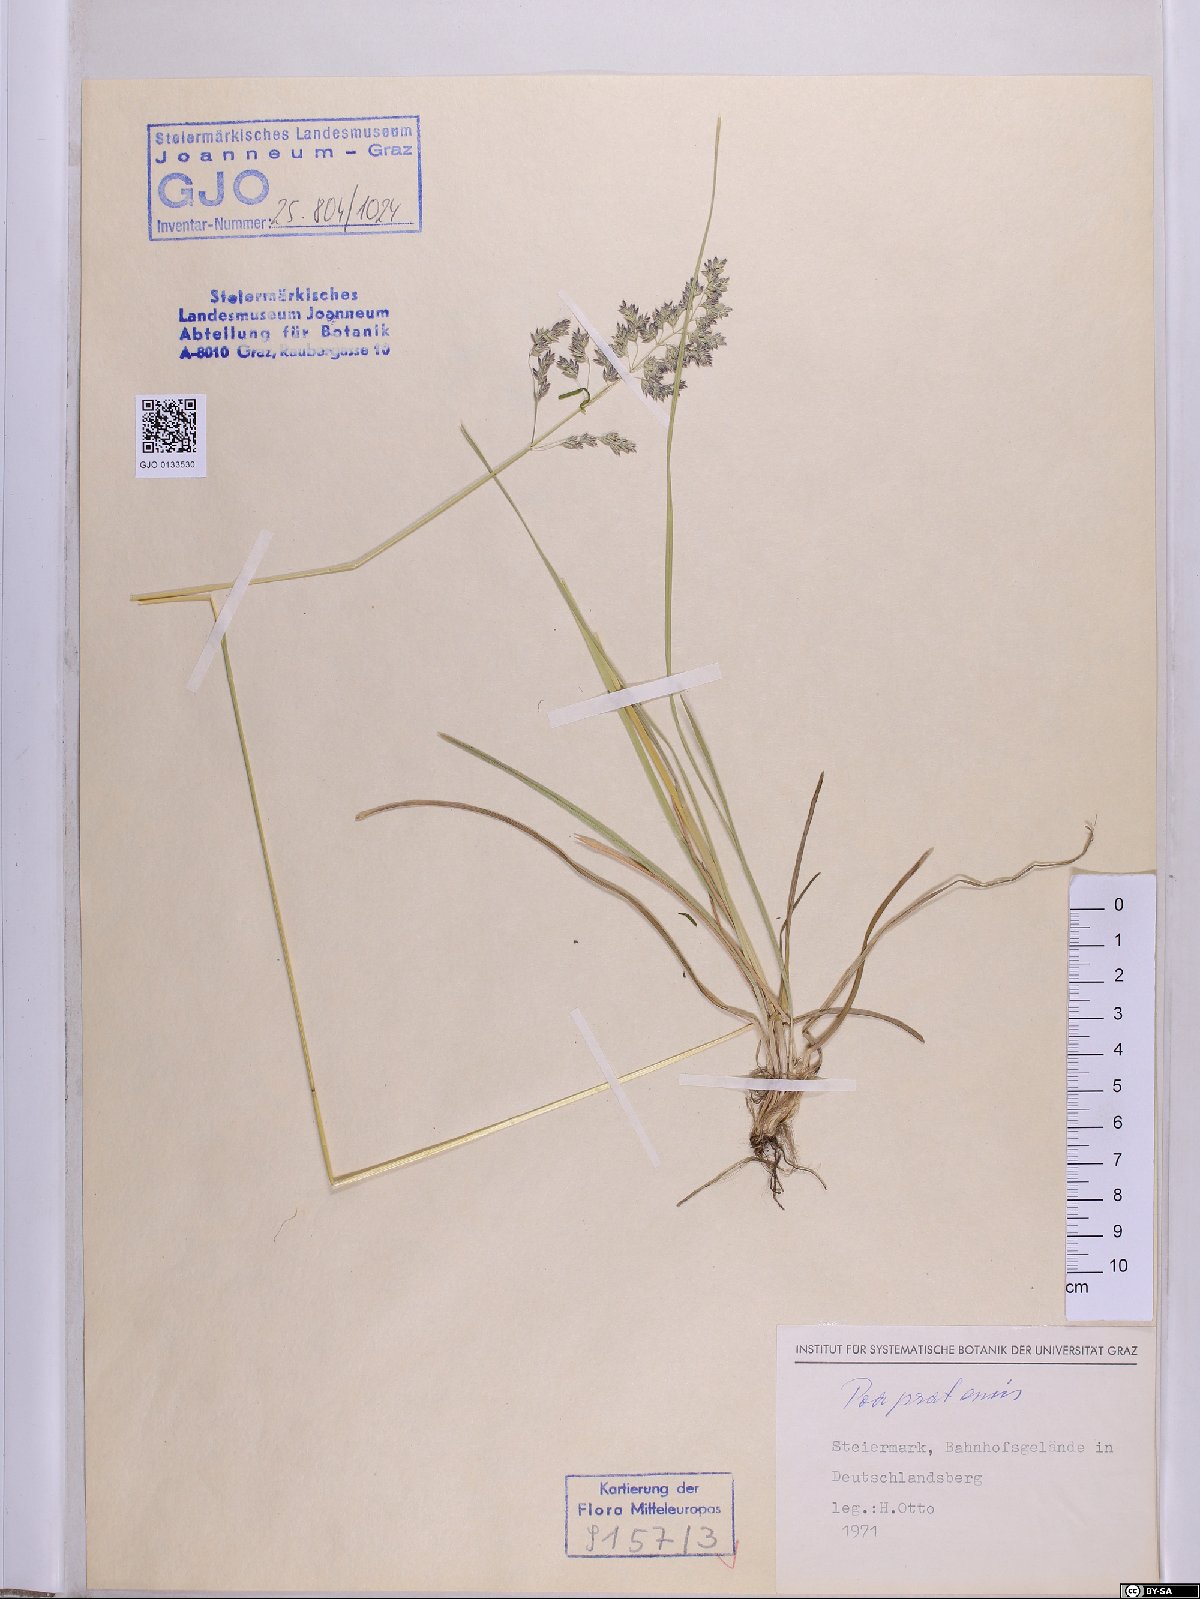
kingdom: Plantae
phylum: Tracheophyta
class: Liliopsida
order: Poales
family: Poaceae
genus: Poa
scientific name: Poa pratensis
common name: Kentucky bluegrass
